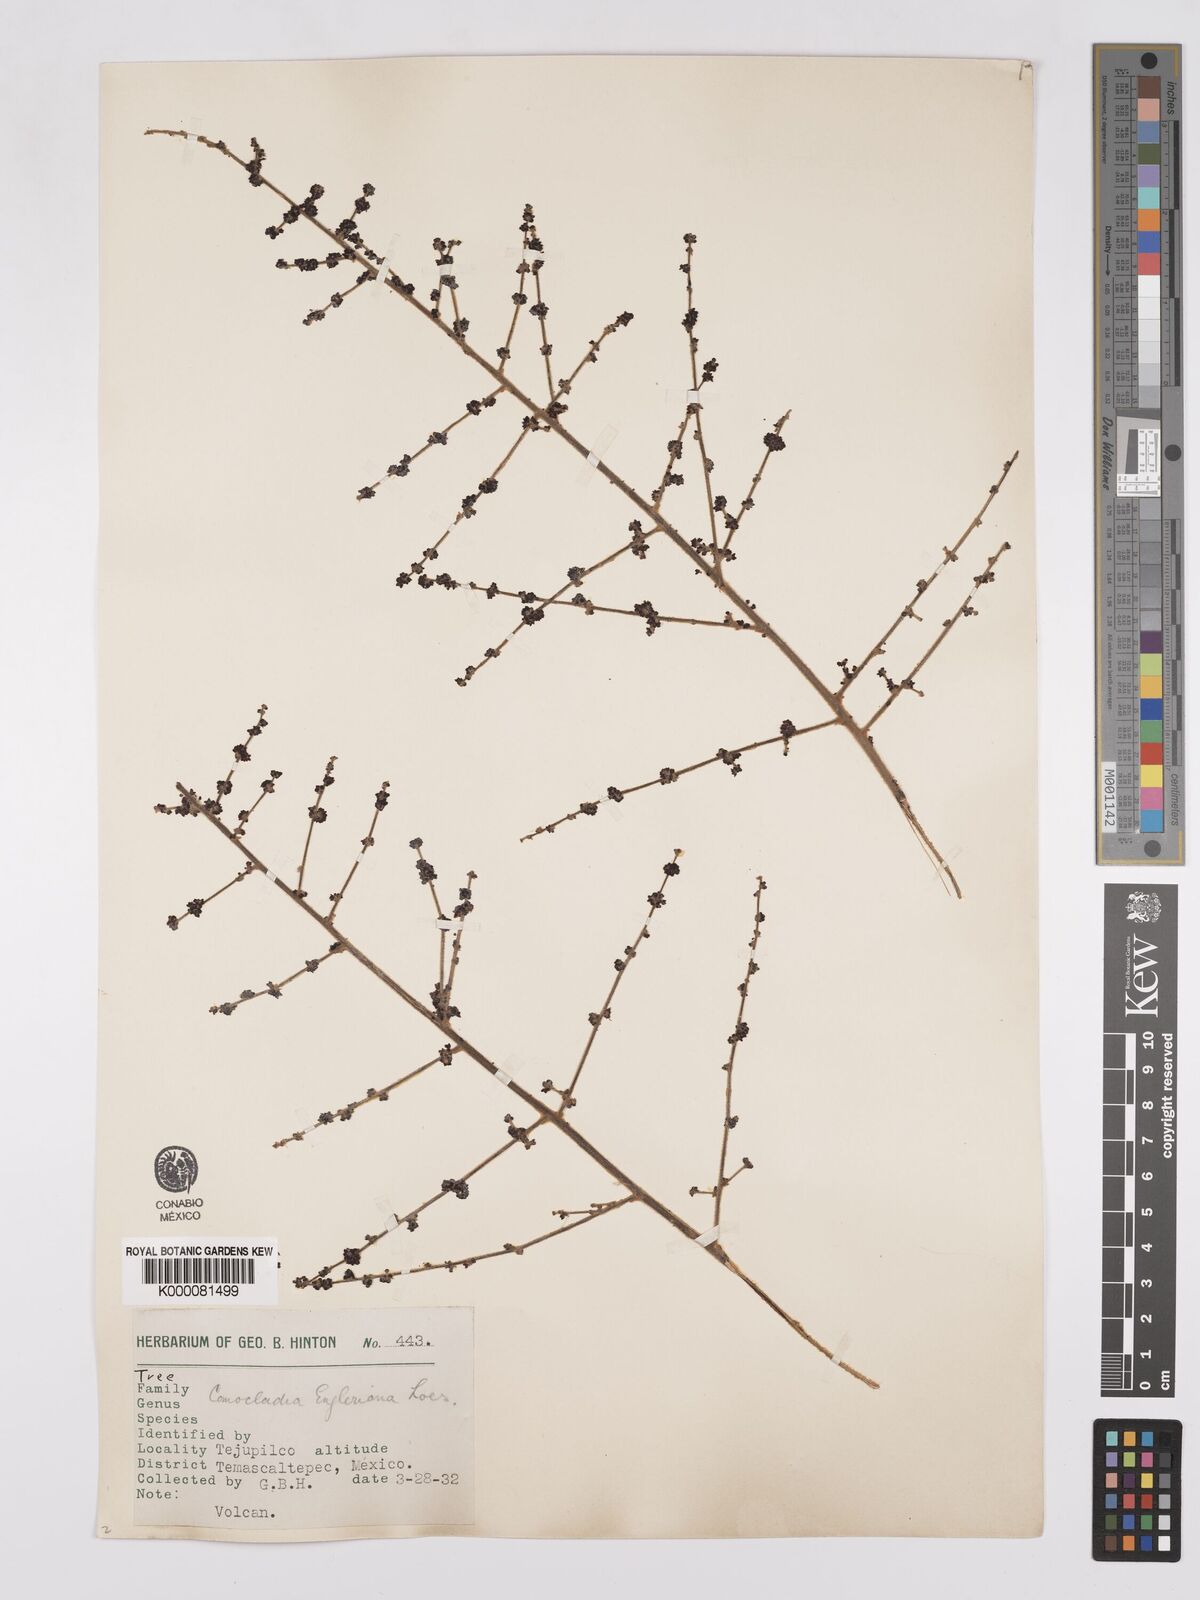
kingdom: Plantae
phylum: Tracheophyta
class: Magnoliopsida
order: Sapindales
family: Anacardiaceae
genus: Comocladia
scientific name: Comocladia
